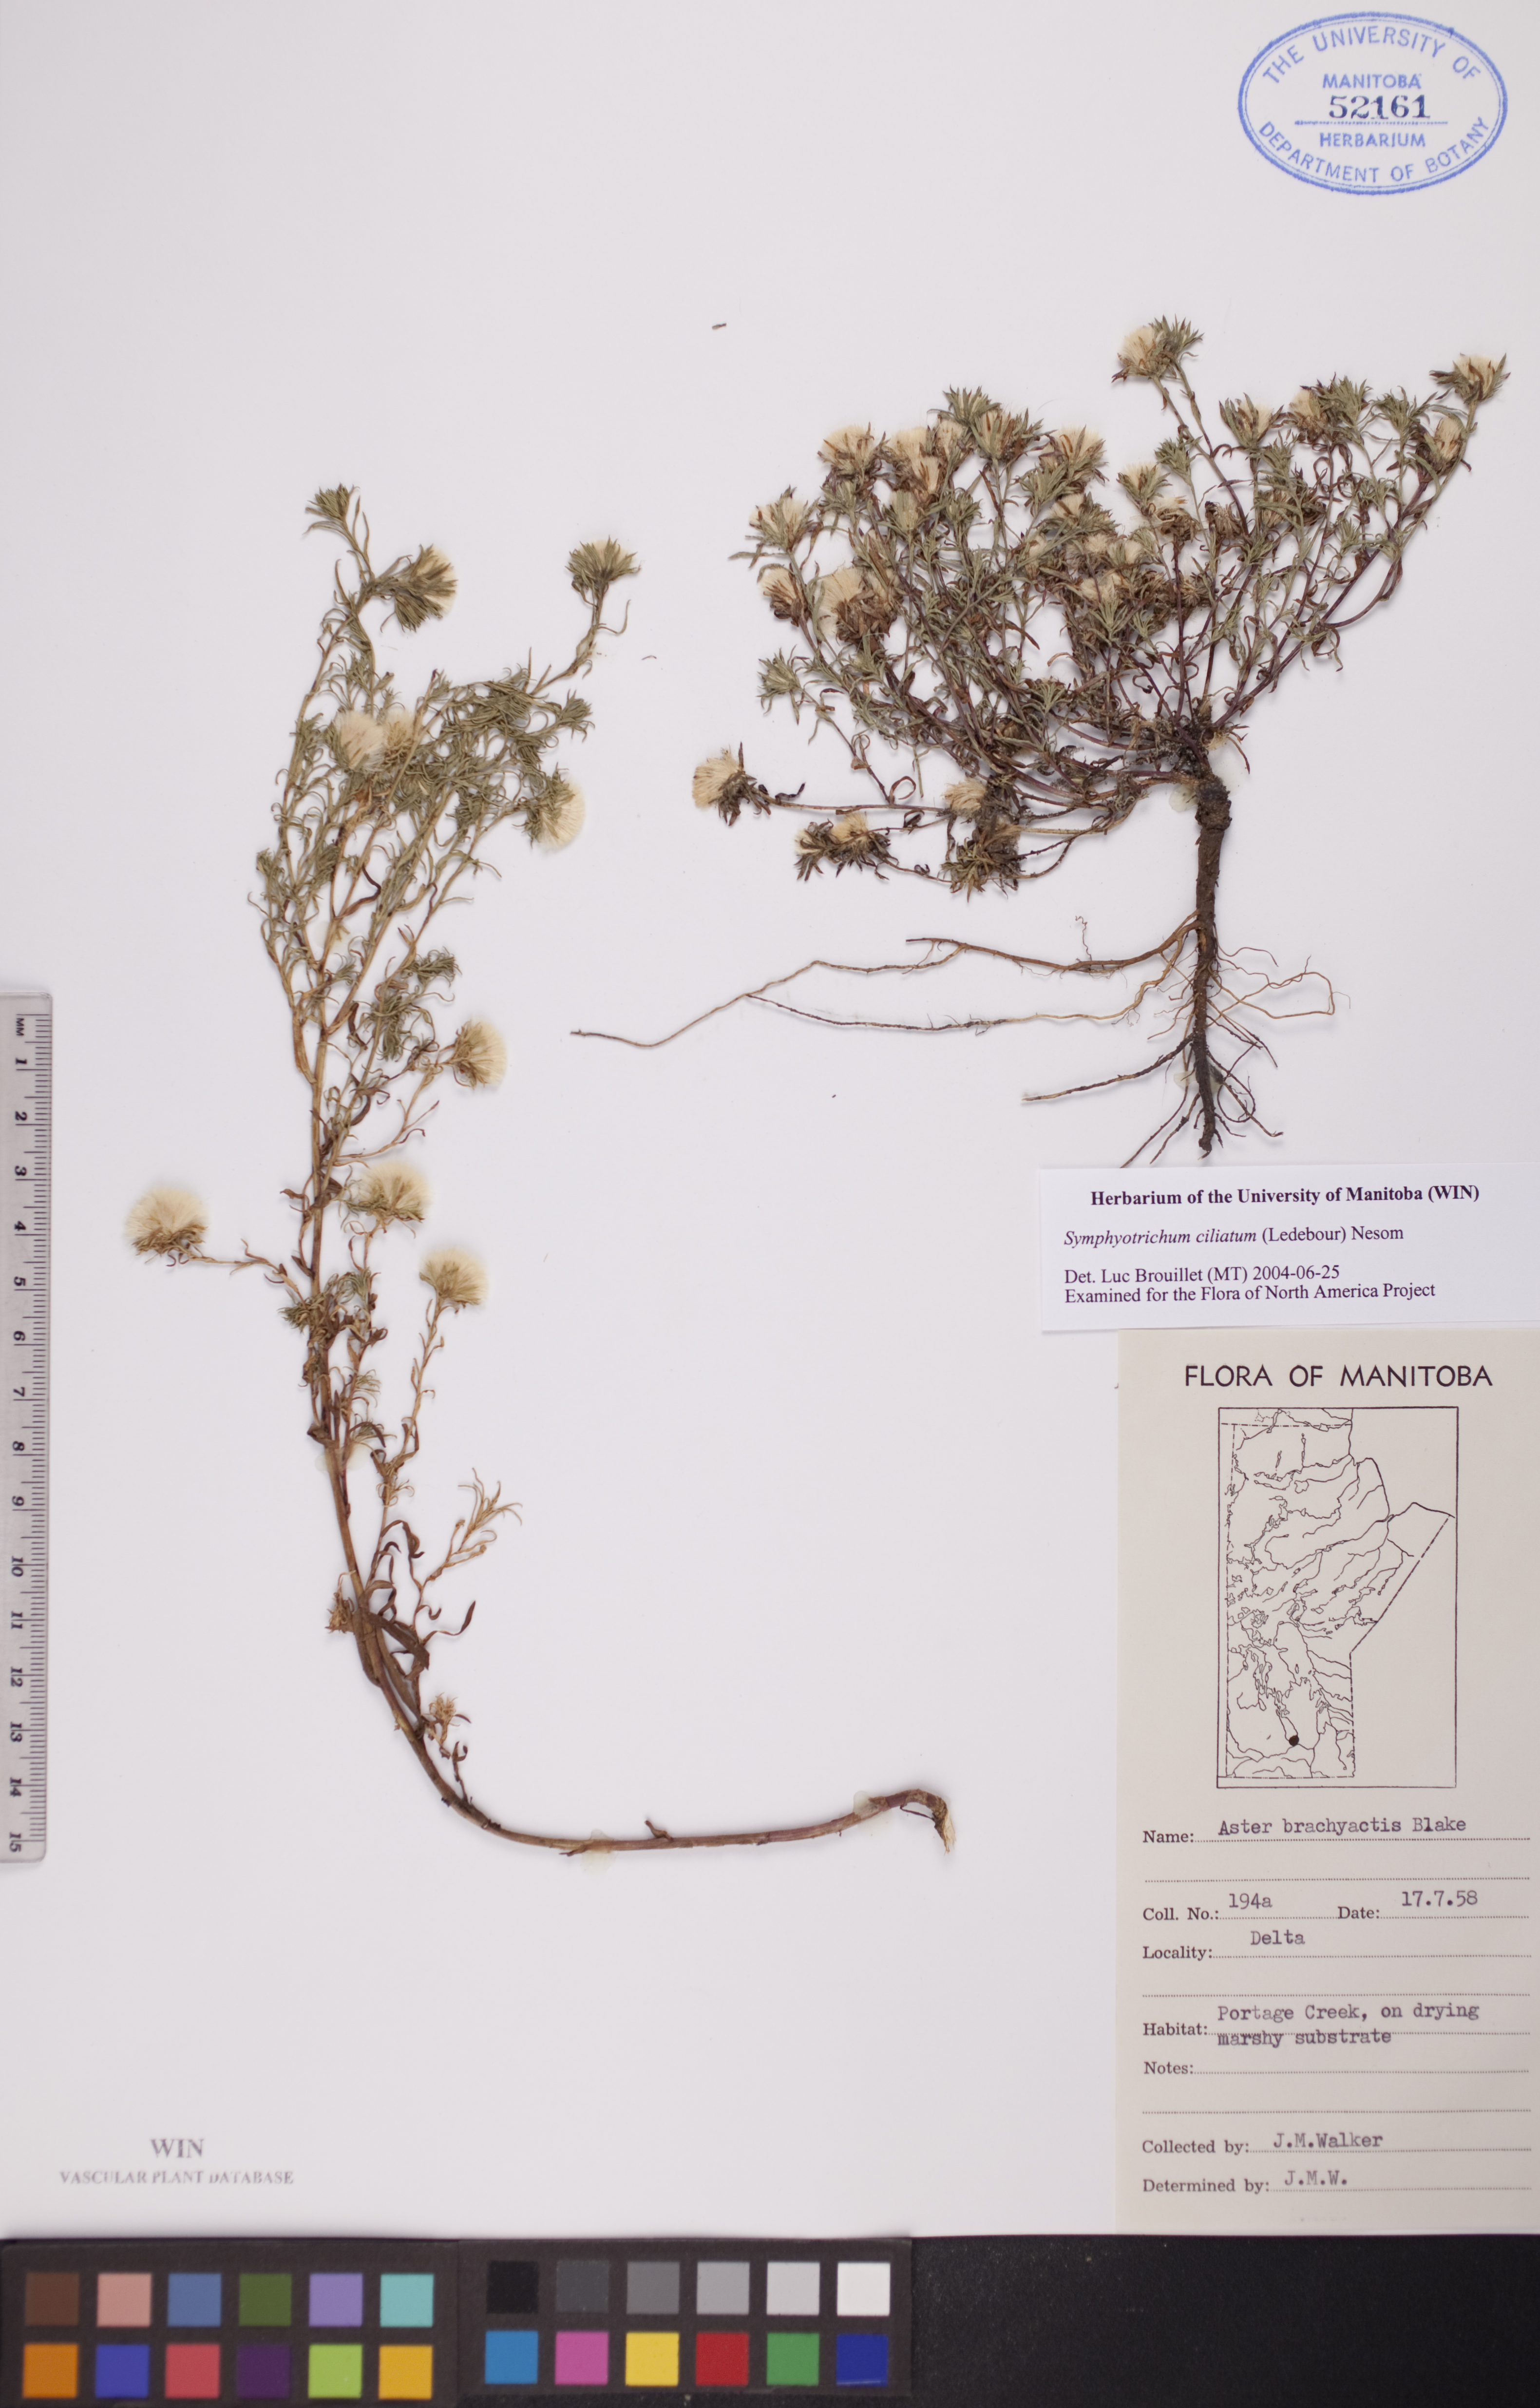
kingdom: Plantae
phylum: Tracheophyta
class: Magnoliopsida
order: Asterales
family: Asteraceae
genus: Symphyotrichum
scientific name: Symphyotrichum ciliatum
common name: Rayless annual aster
